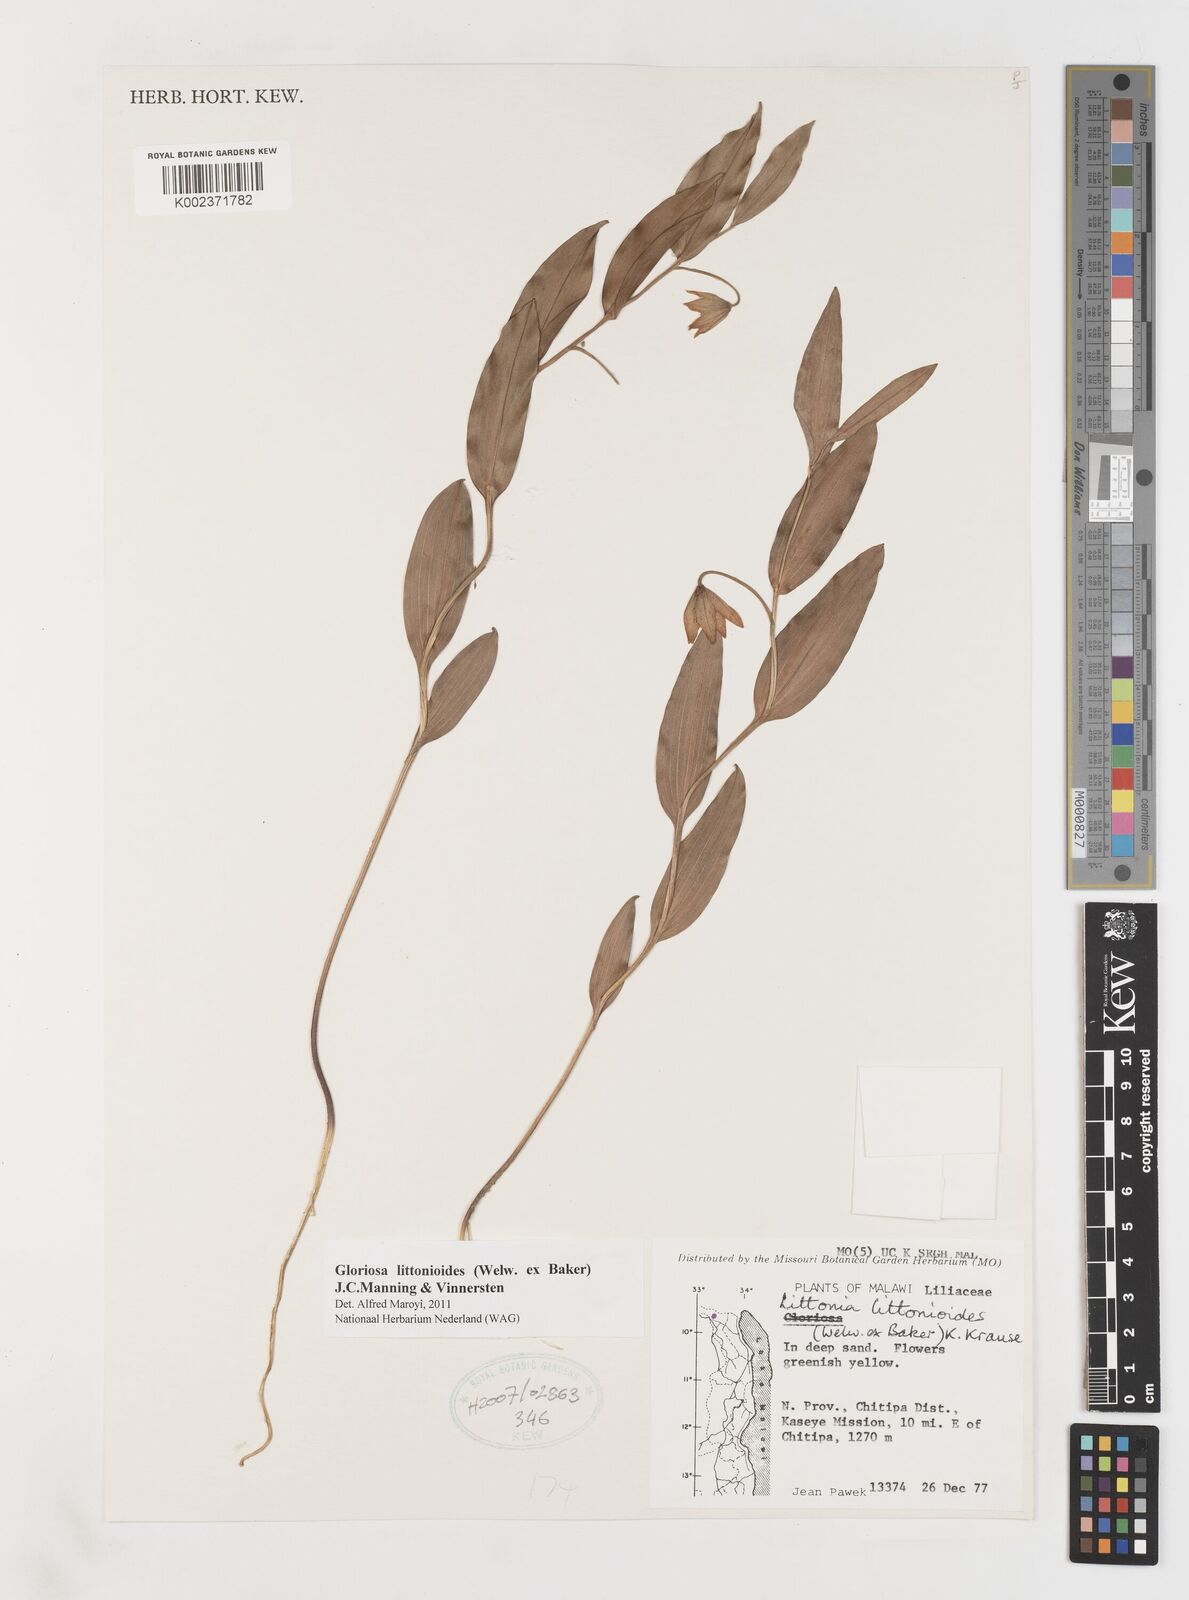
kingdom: Plantae
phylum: Tracheophyta
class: Liliopsida
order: Liliales
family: Colchicaceae
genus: Gloriosa
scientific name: Gloriosa littonioides
